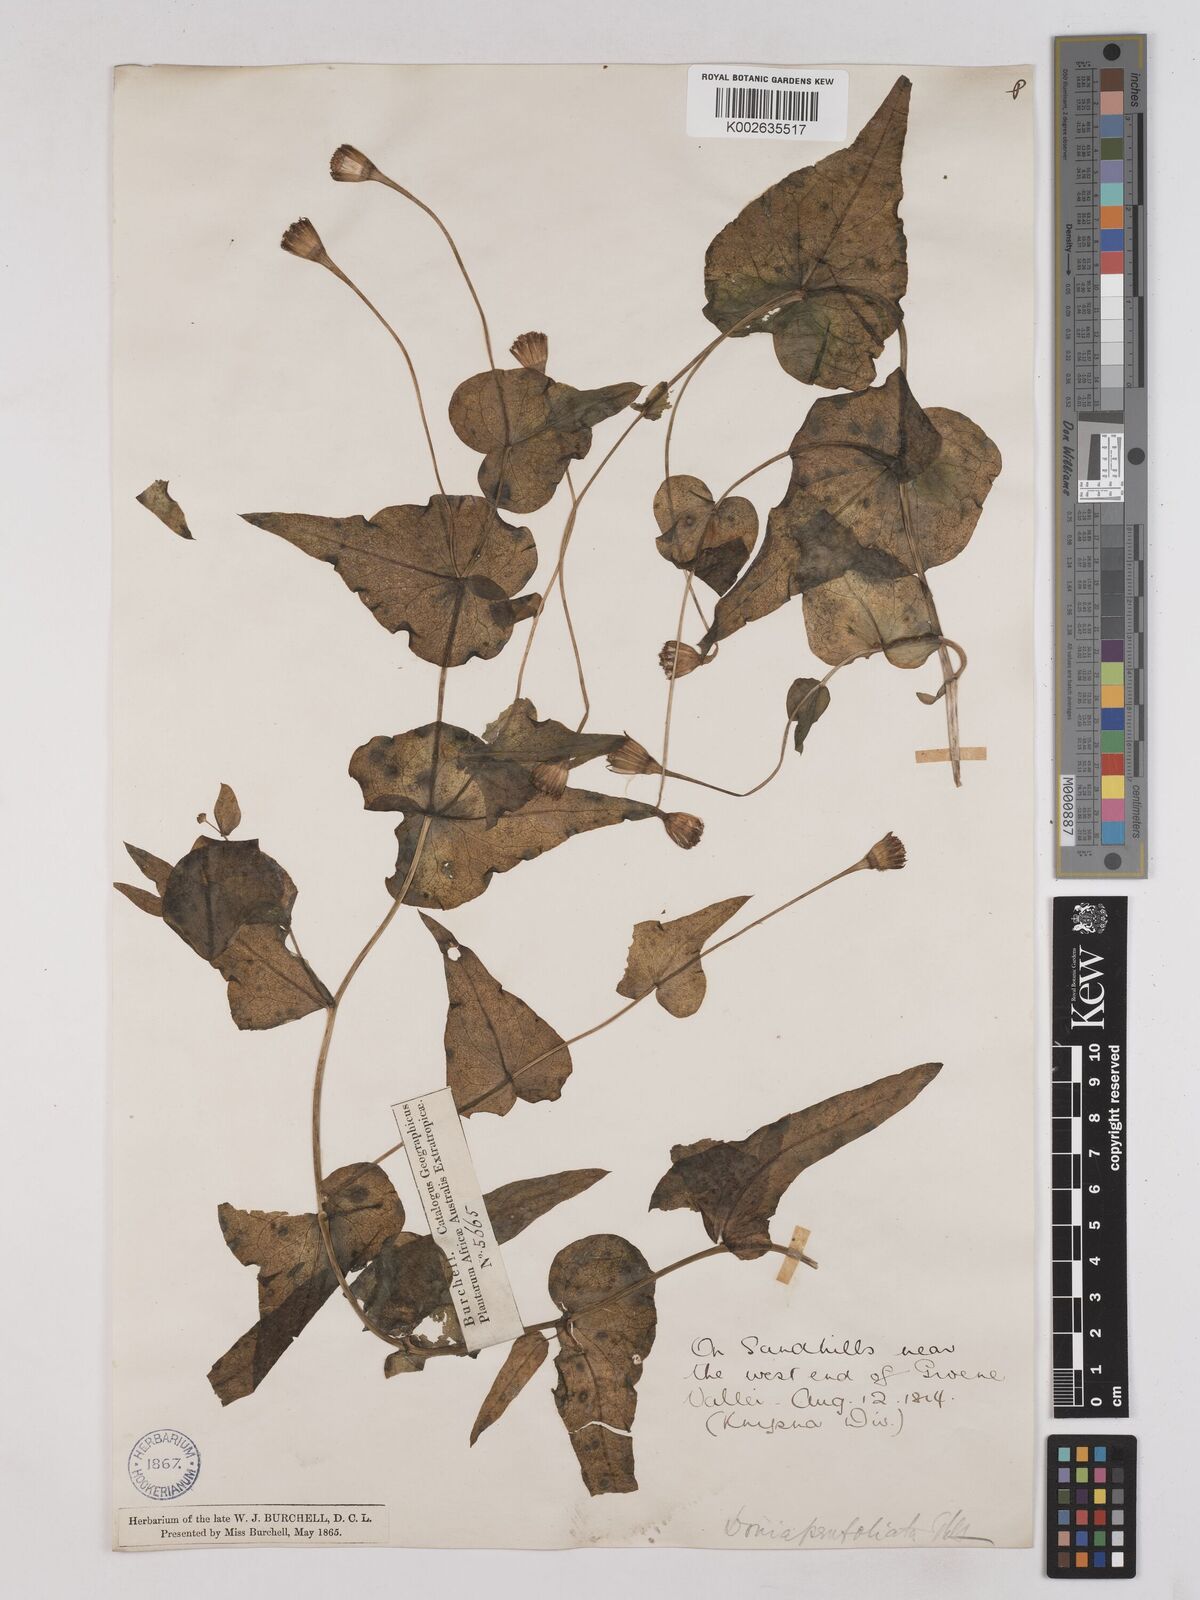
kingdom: Plantae
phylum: Tracheophyta
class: Magnoliopsida
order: Asterales
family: Asteraceae
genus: Othonna
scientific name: Othonna perfoliata
